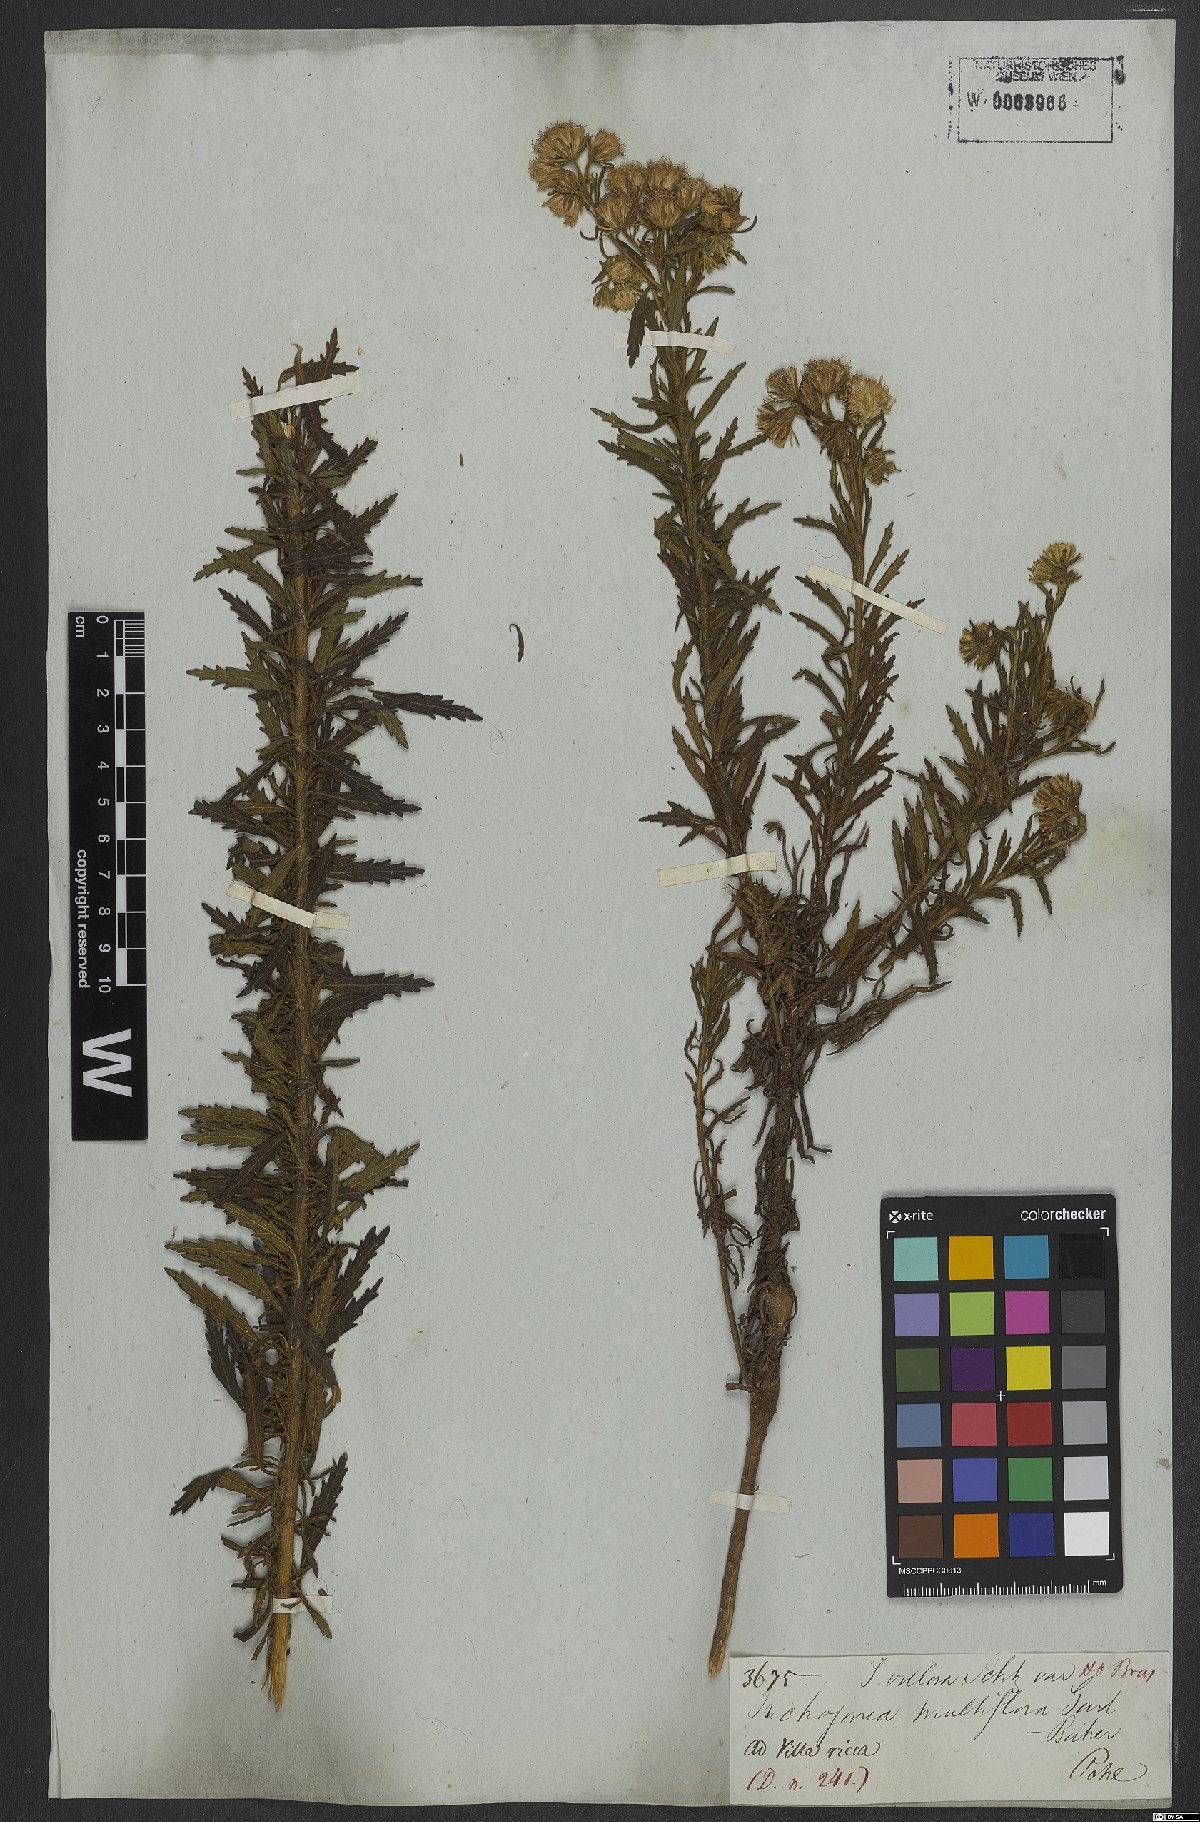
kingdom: Plantae
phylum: Tracheophyta
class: Magnoliopsida
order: Asterales
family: Asteraceae
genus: Stilpnopappus
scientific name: Stilpnopappus bicolor
